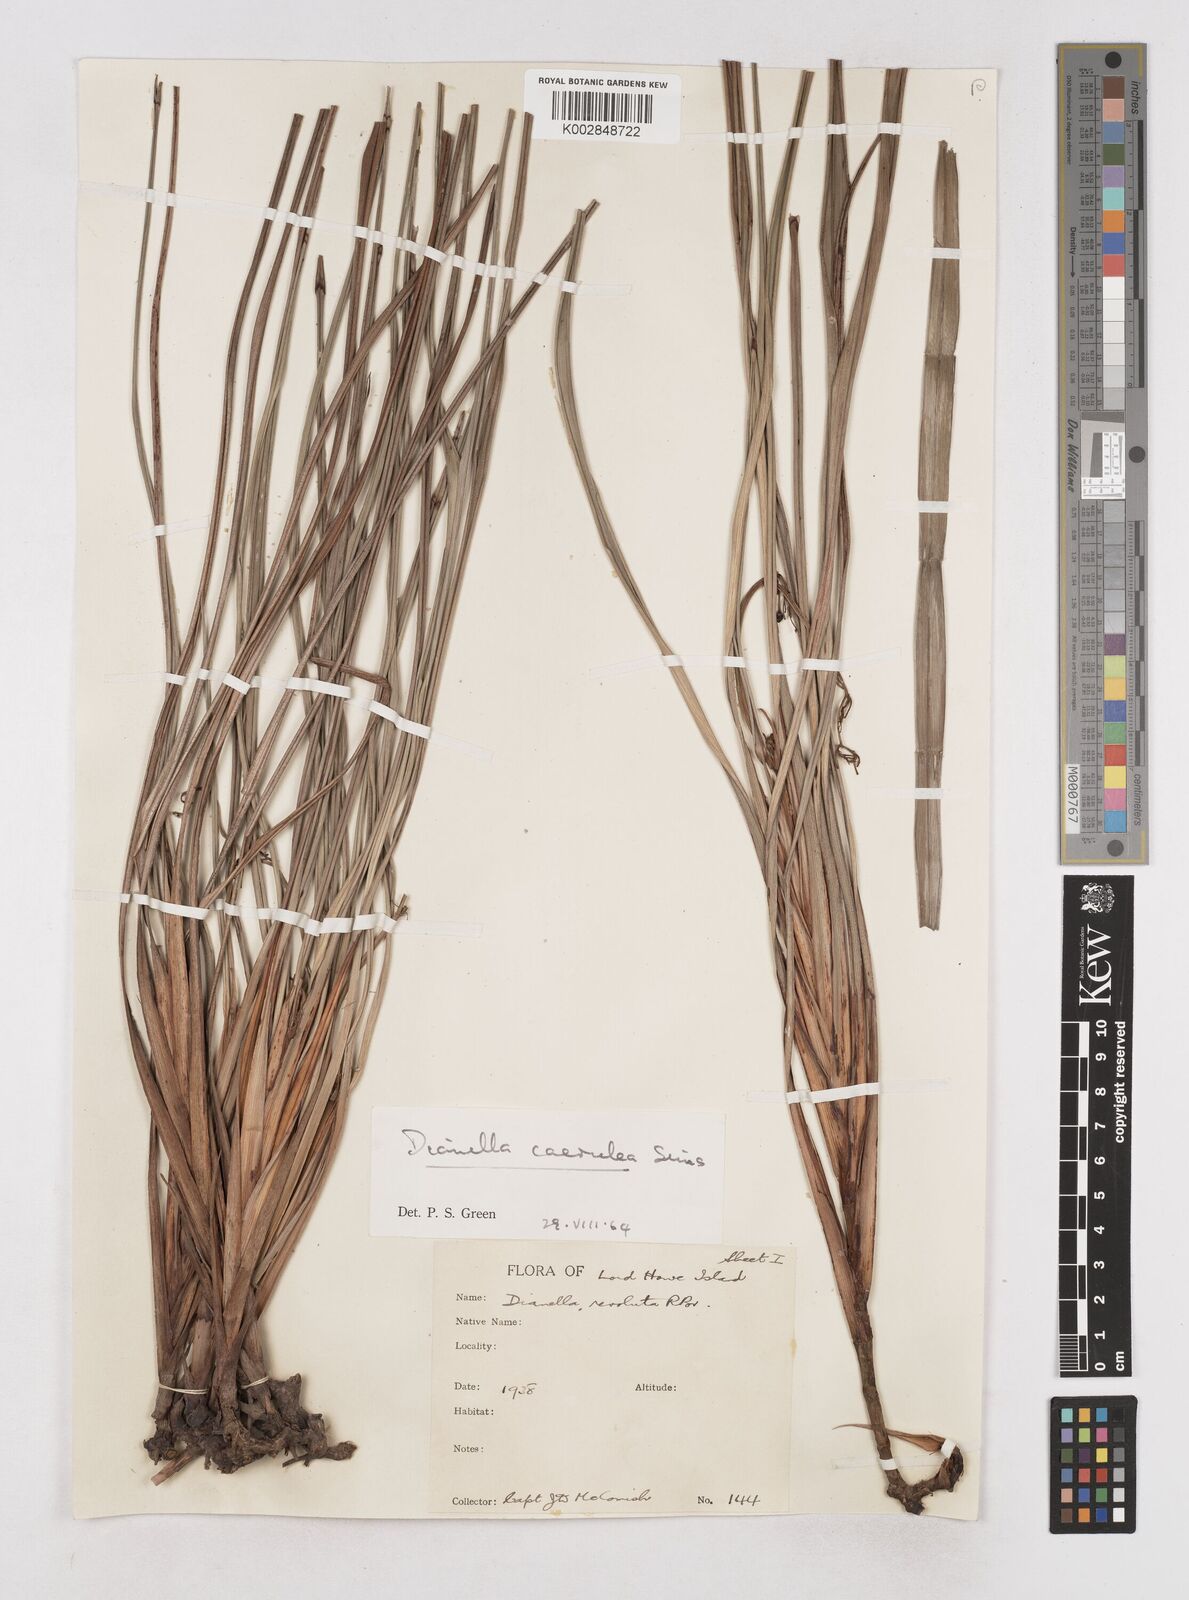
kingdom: Plantae
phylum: Tracheophyta
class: Liliopsida
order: Asparagales
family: Asphodelaceae
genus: Dianella
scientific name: Dianella
